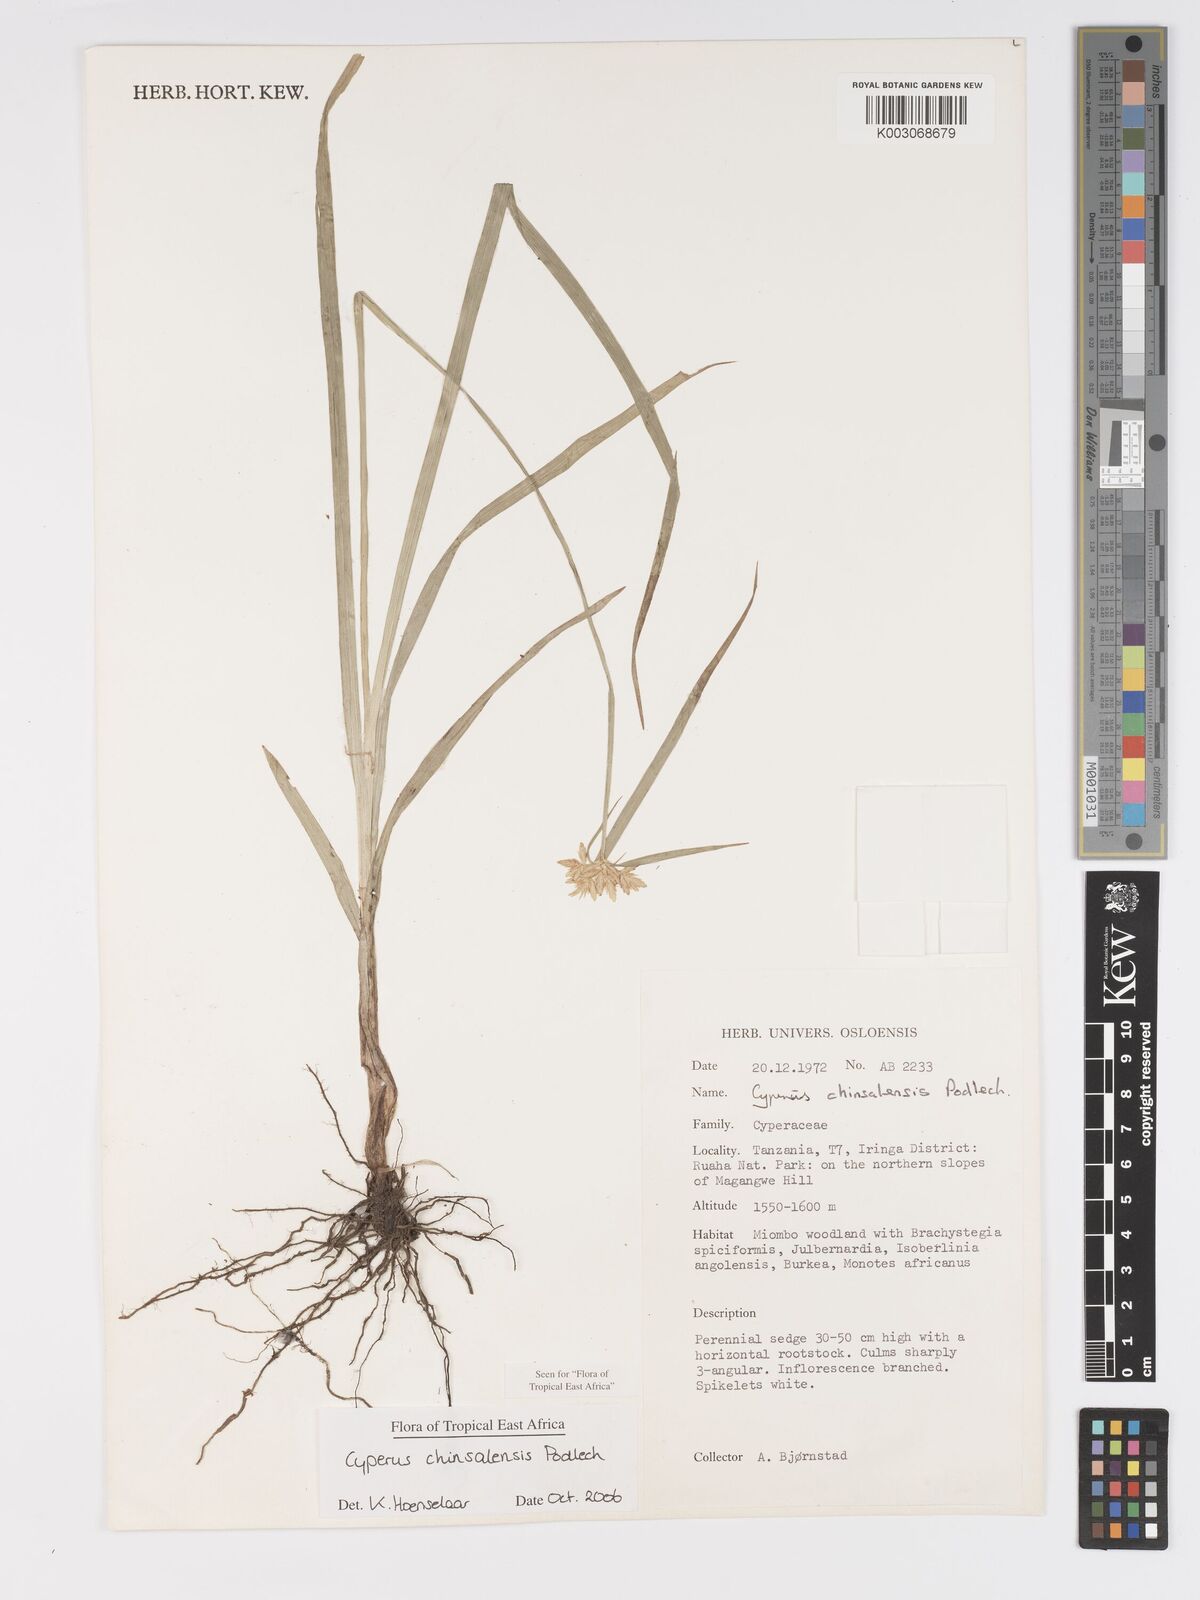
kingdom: Plantae
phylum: Tracheophyta
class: Liliopsida
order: Poales
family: Cyperaceae
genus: Cyperus
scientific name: Cyperus chinsalensis
